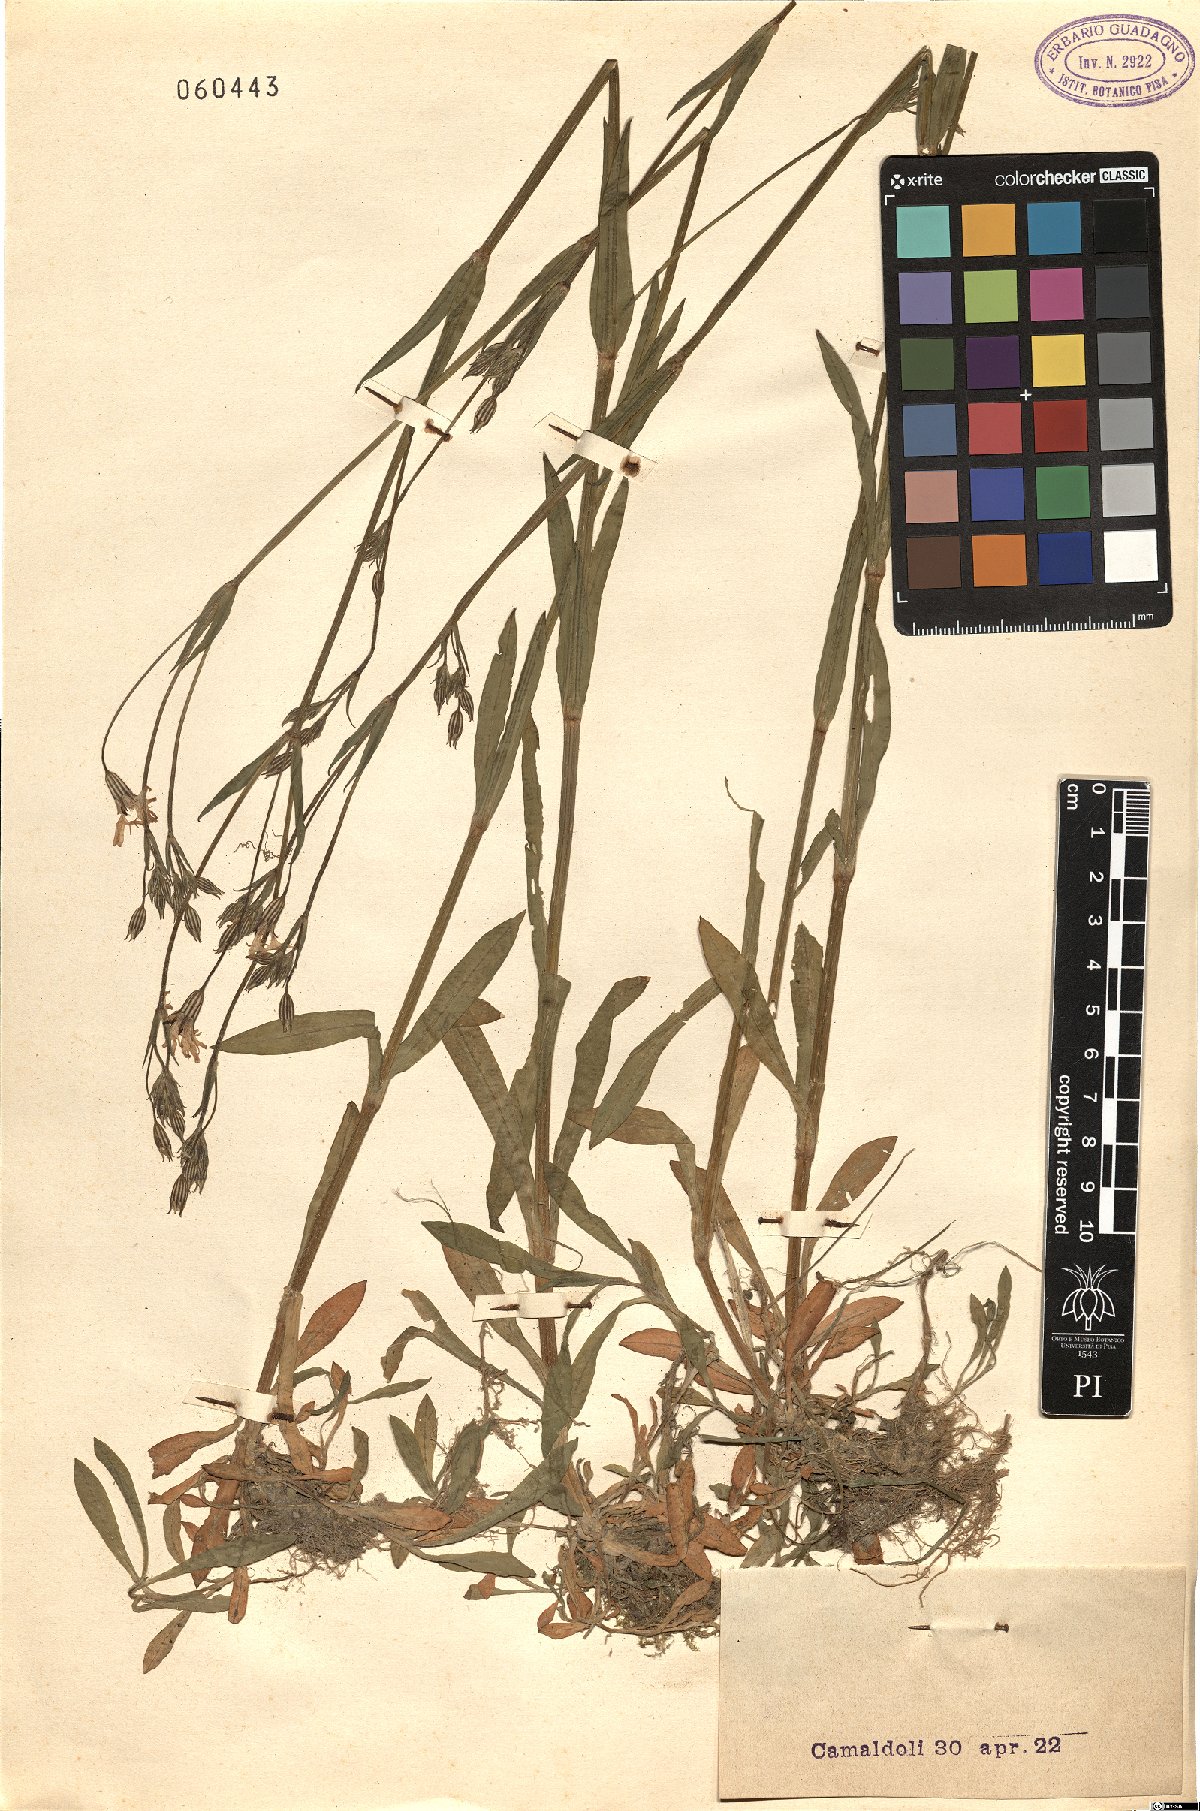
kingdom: Plantae
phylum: Tracheophyta
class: Magnoliopsida
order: Caryophyllales
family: Caryophyllaceae
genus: Silene
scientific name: Silene flos-cuculi
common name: Ragged-robin
